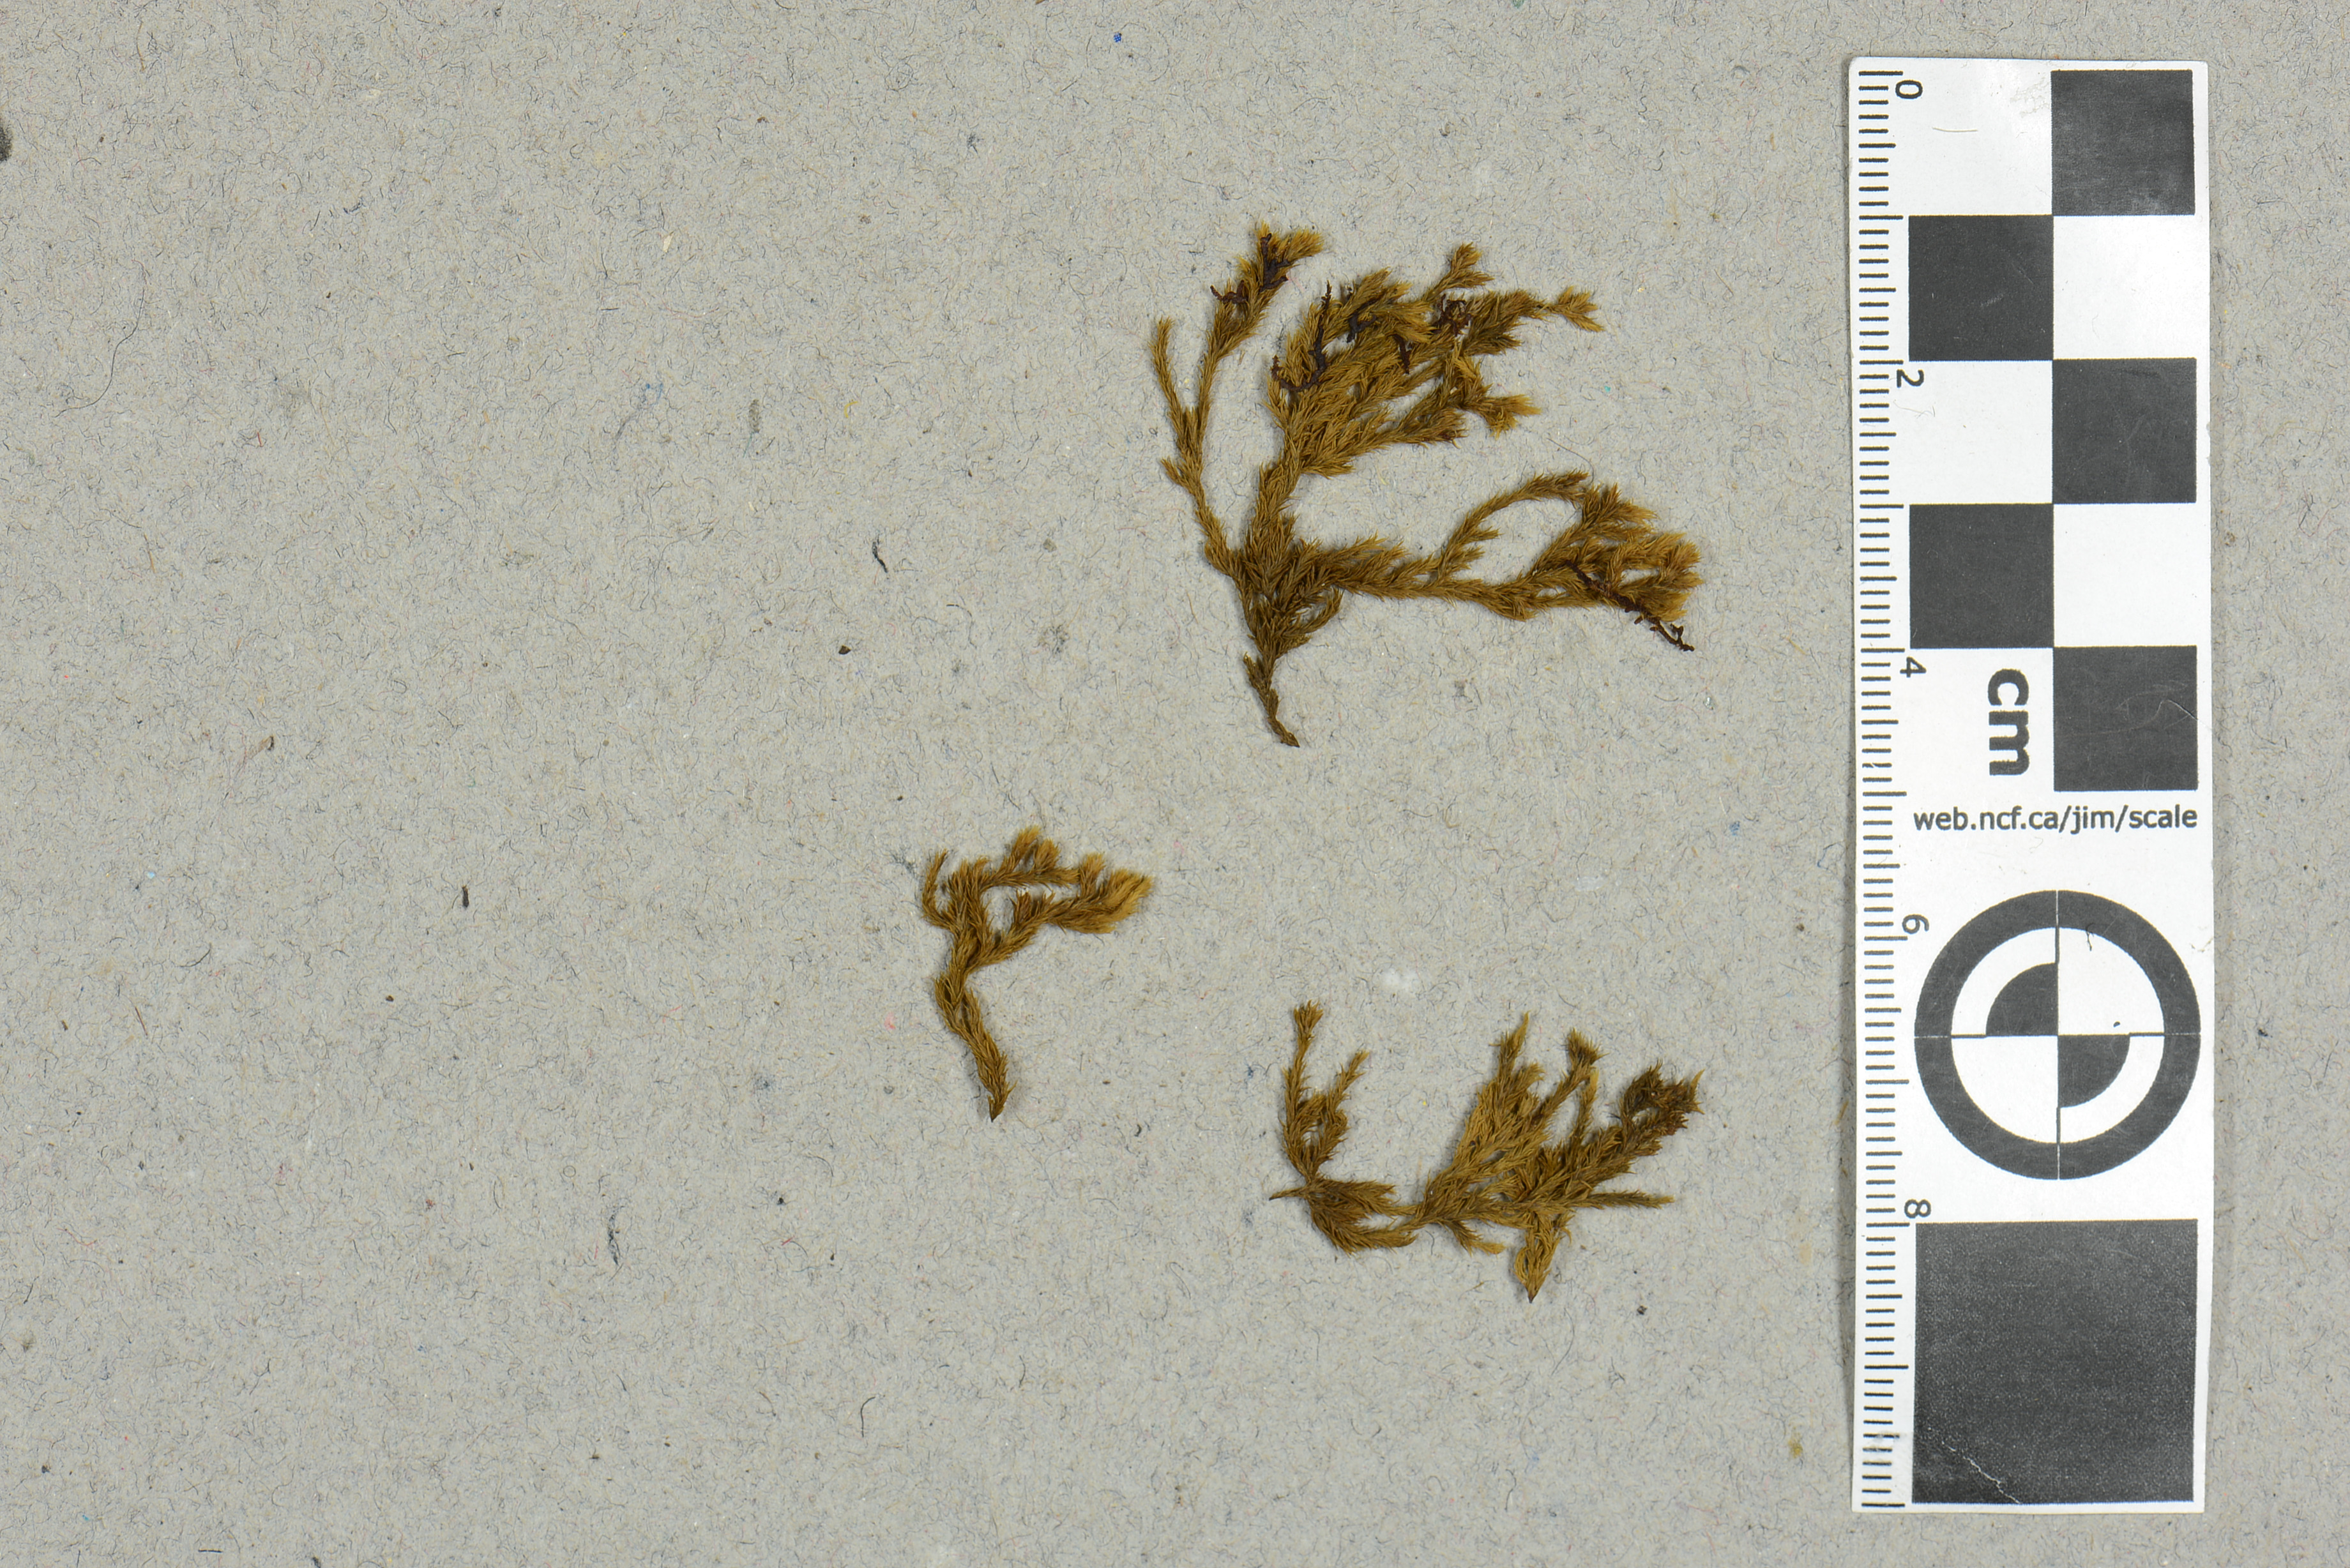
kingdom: Plantae
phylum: Bryophyta
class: Bryopsida
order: Grimmiales
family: Grimmiaceae
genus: Dilutineuron
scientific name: Dilutineuron fasciculare
